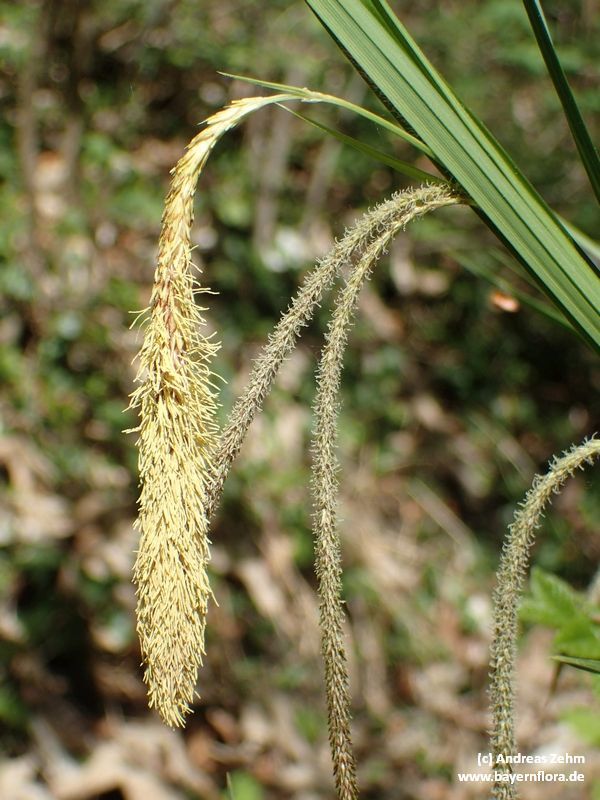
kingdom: Plantae
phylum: Tracheophyta
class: Liliopsida
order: Poales
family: Cyperaceae
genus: Carex
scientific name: Carex agastachys
